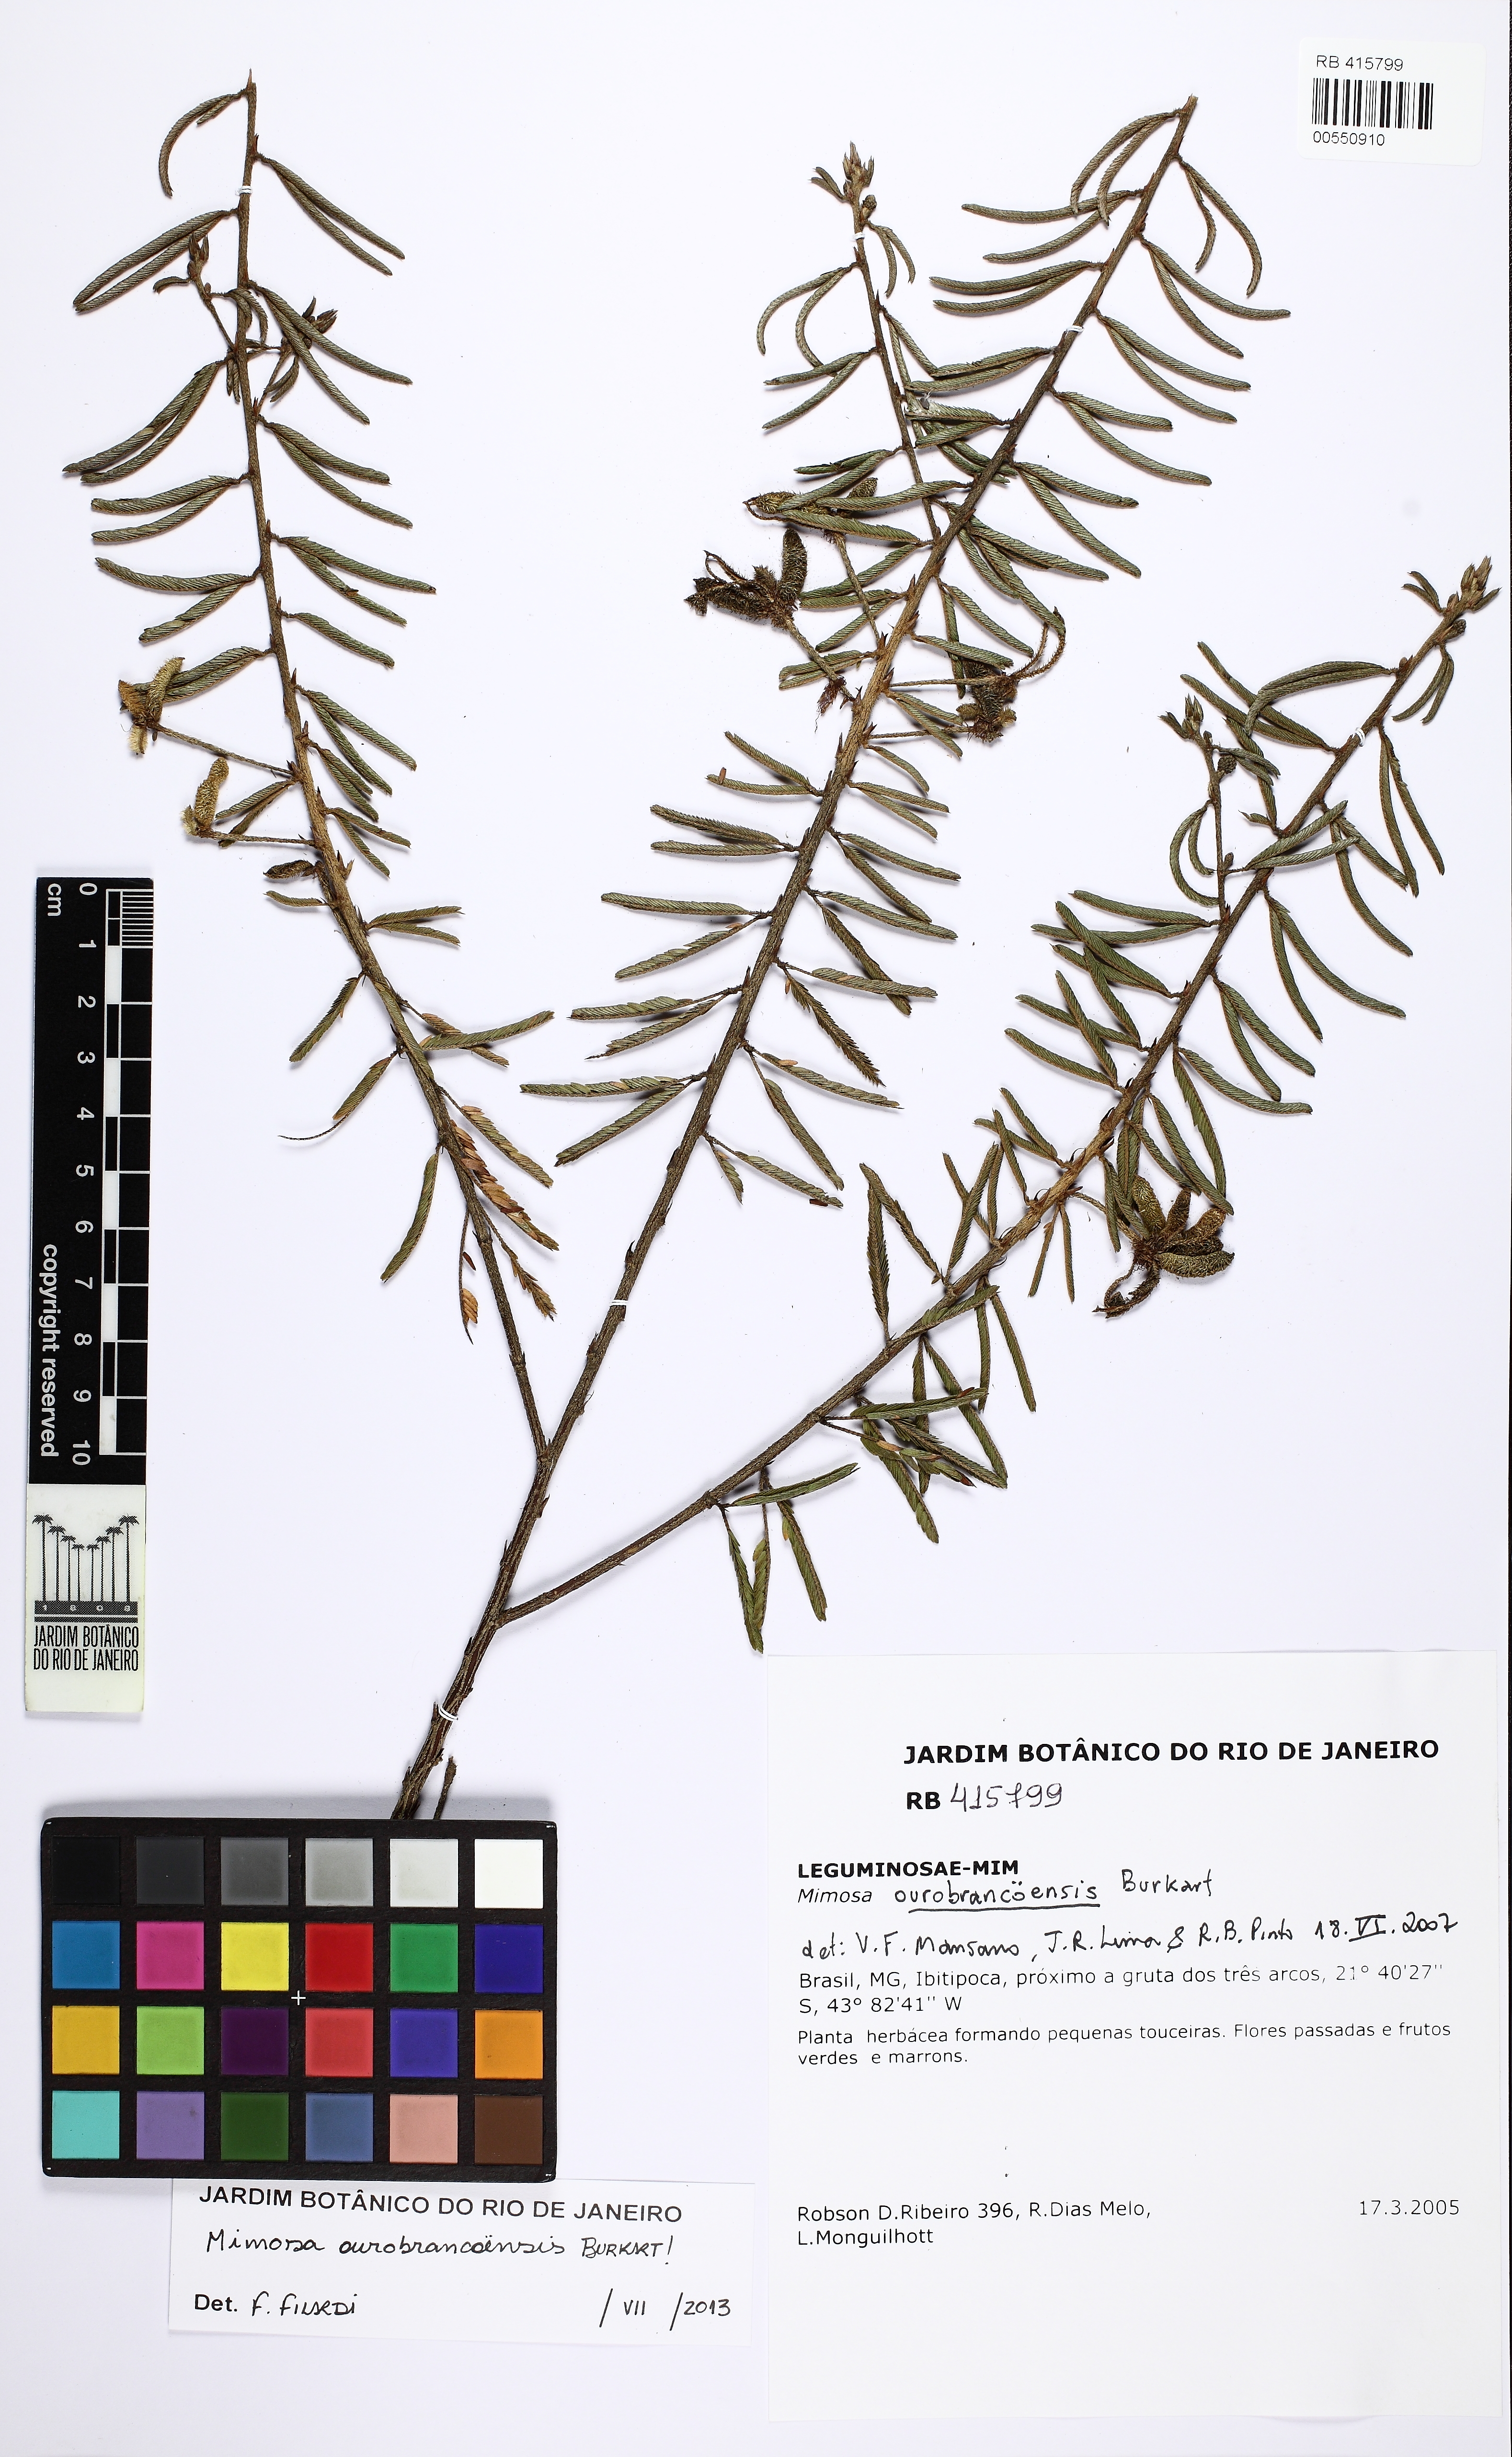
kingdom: Plantae
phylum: Tracheophyta
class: Magnoliopsida
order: Fabales
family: Fabaceae
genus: Mimosa
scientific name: Mimosa ourobrancoensis
